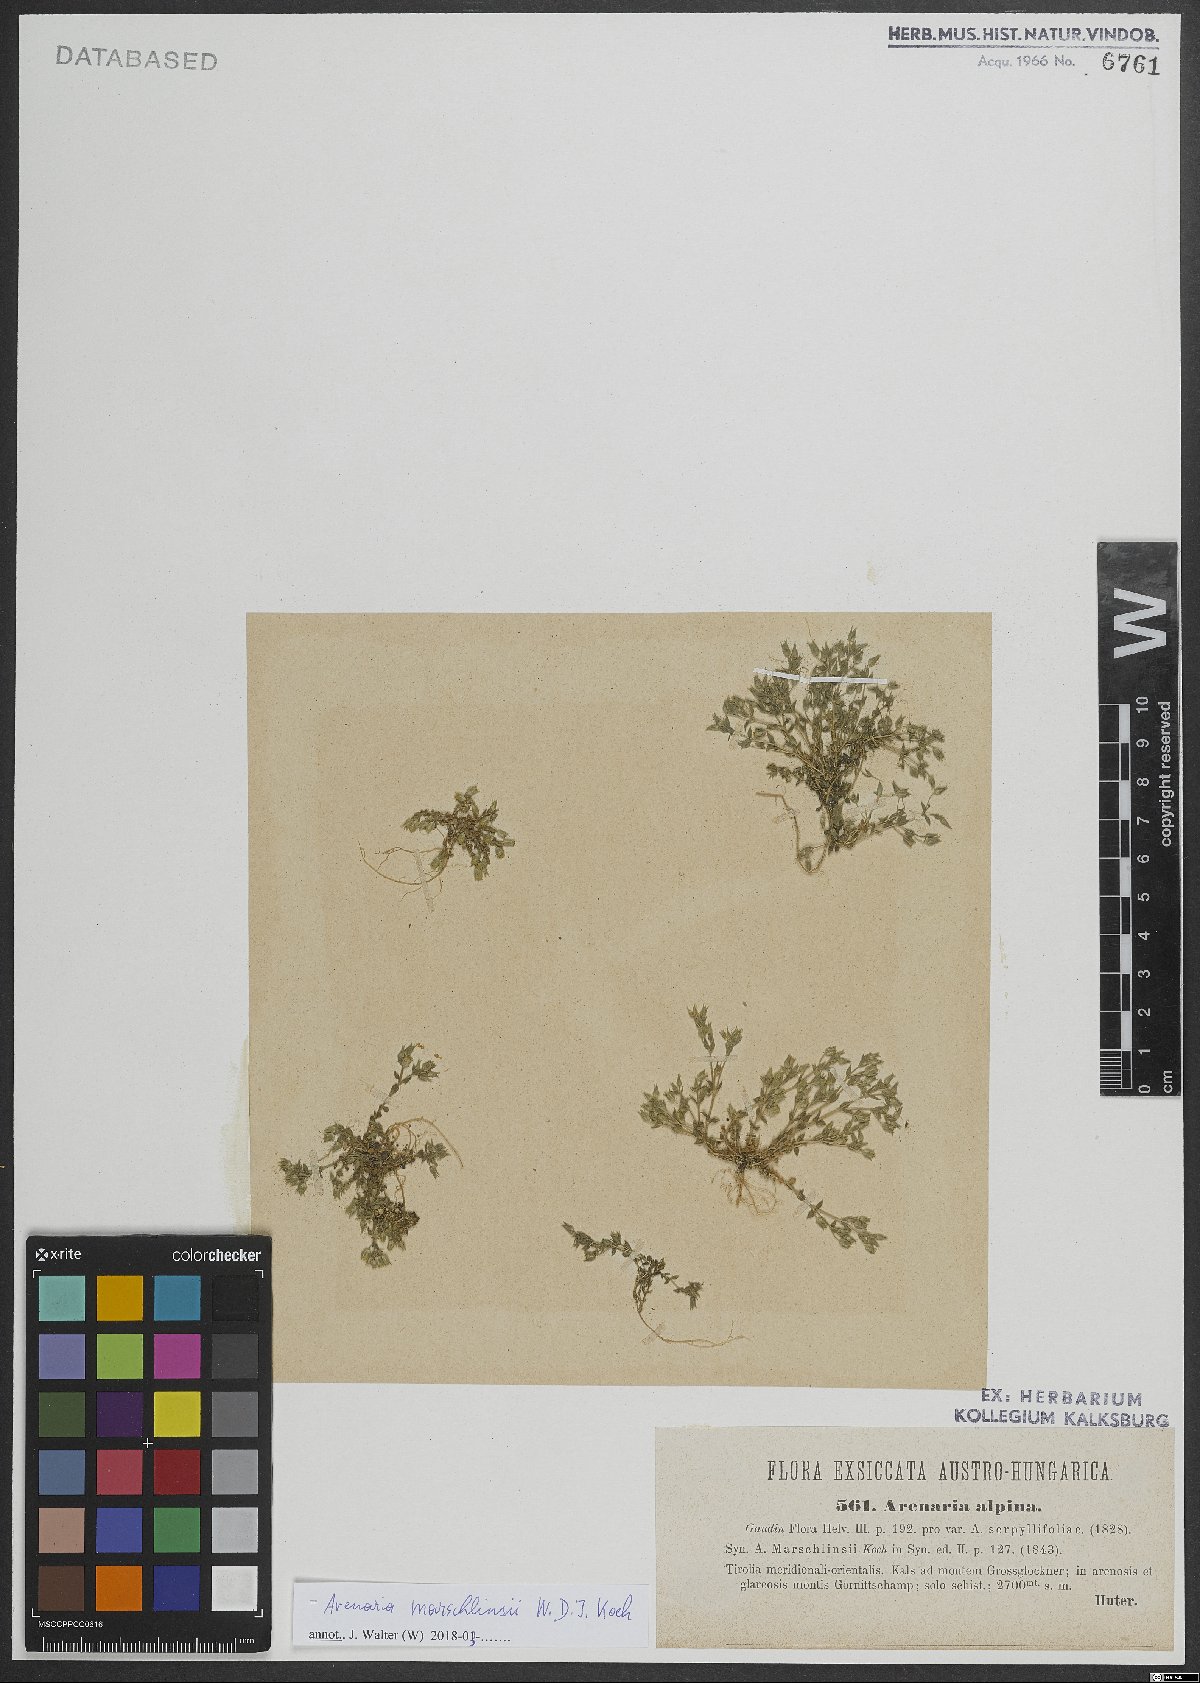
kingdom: Plantae
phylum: Tracheophyta
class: Magnoliopsida
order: Caryophyllales
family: Caryophyllaceae
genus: Arenaria
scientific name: Arenaria marschlinsii
